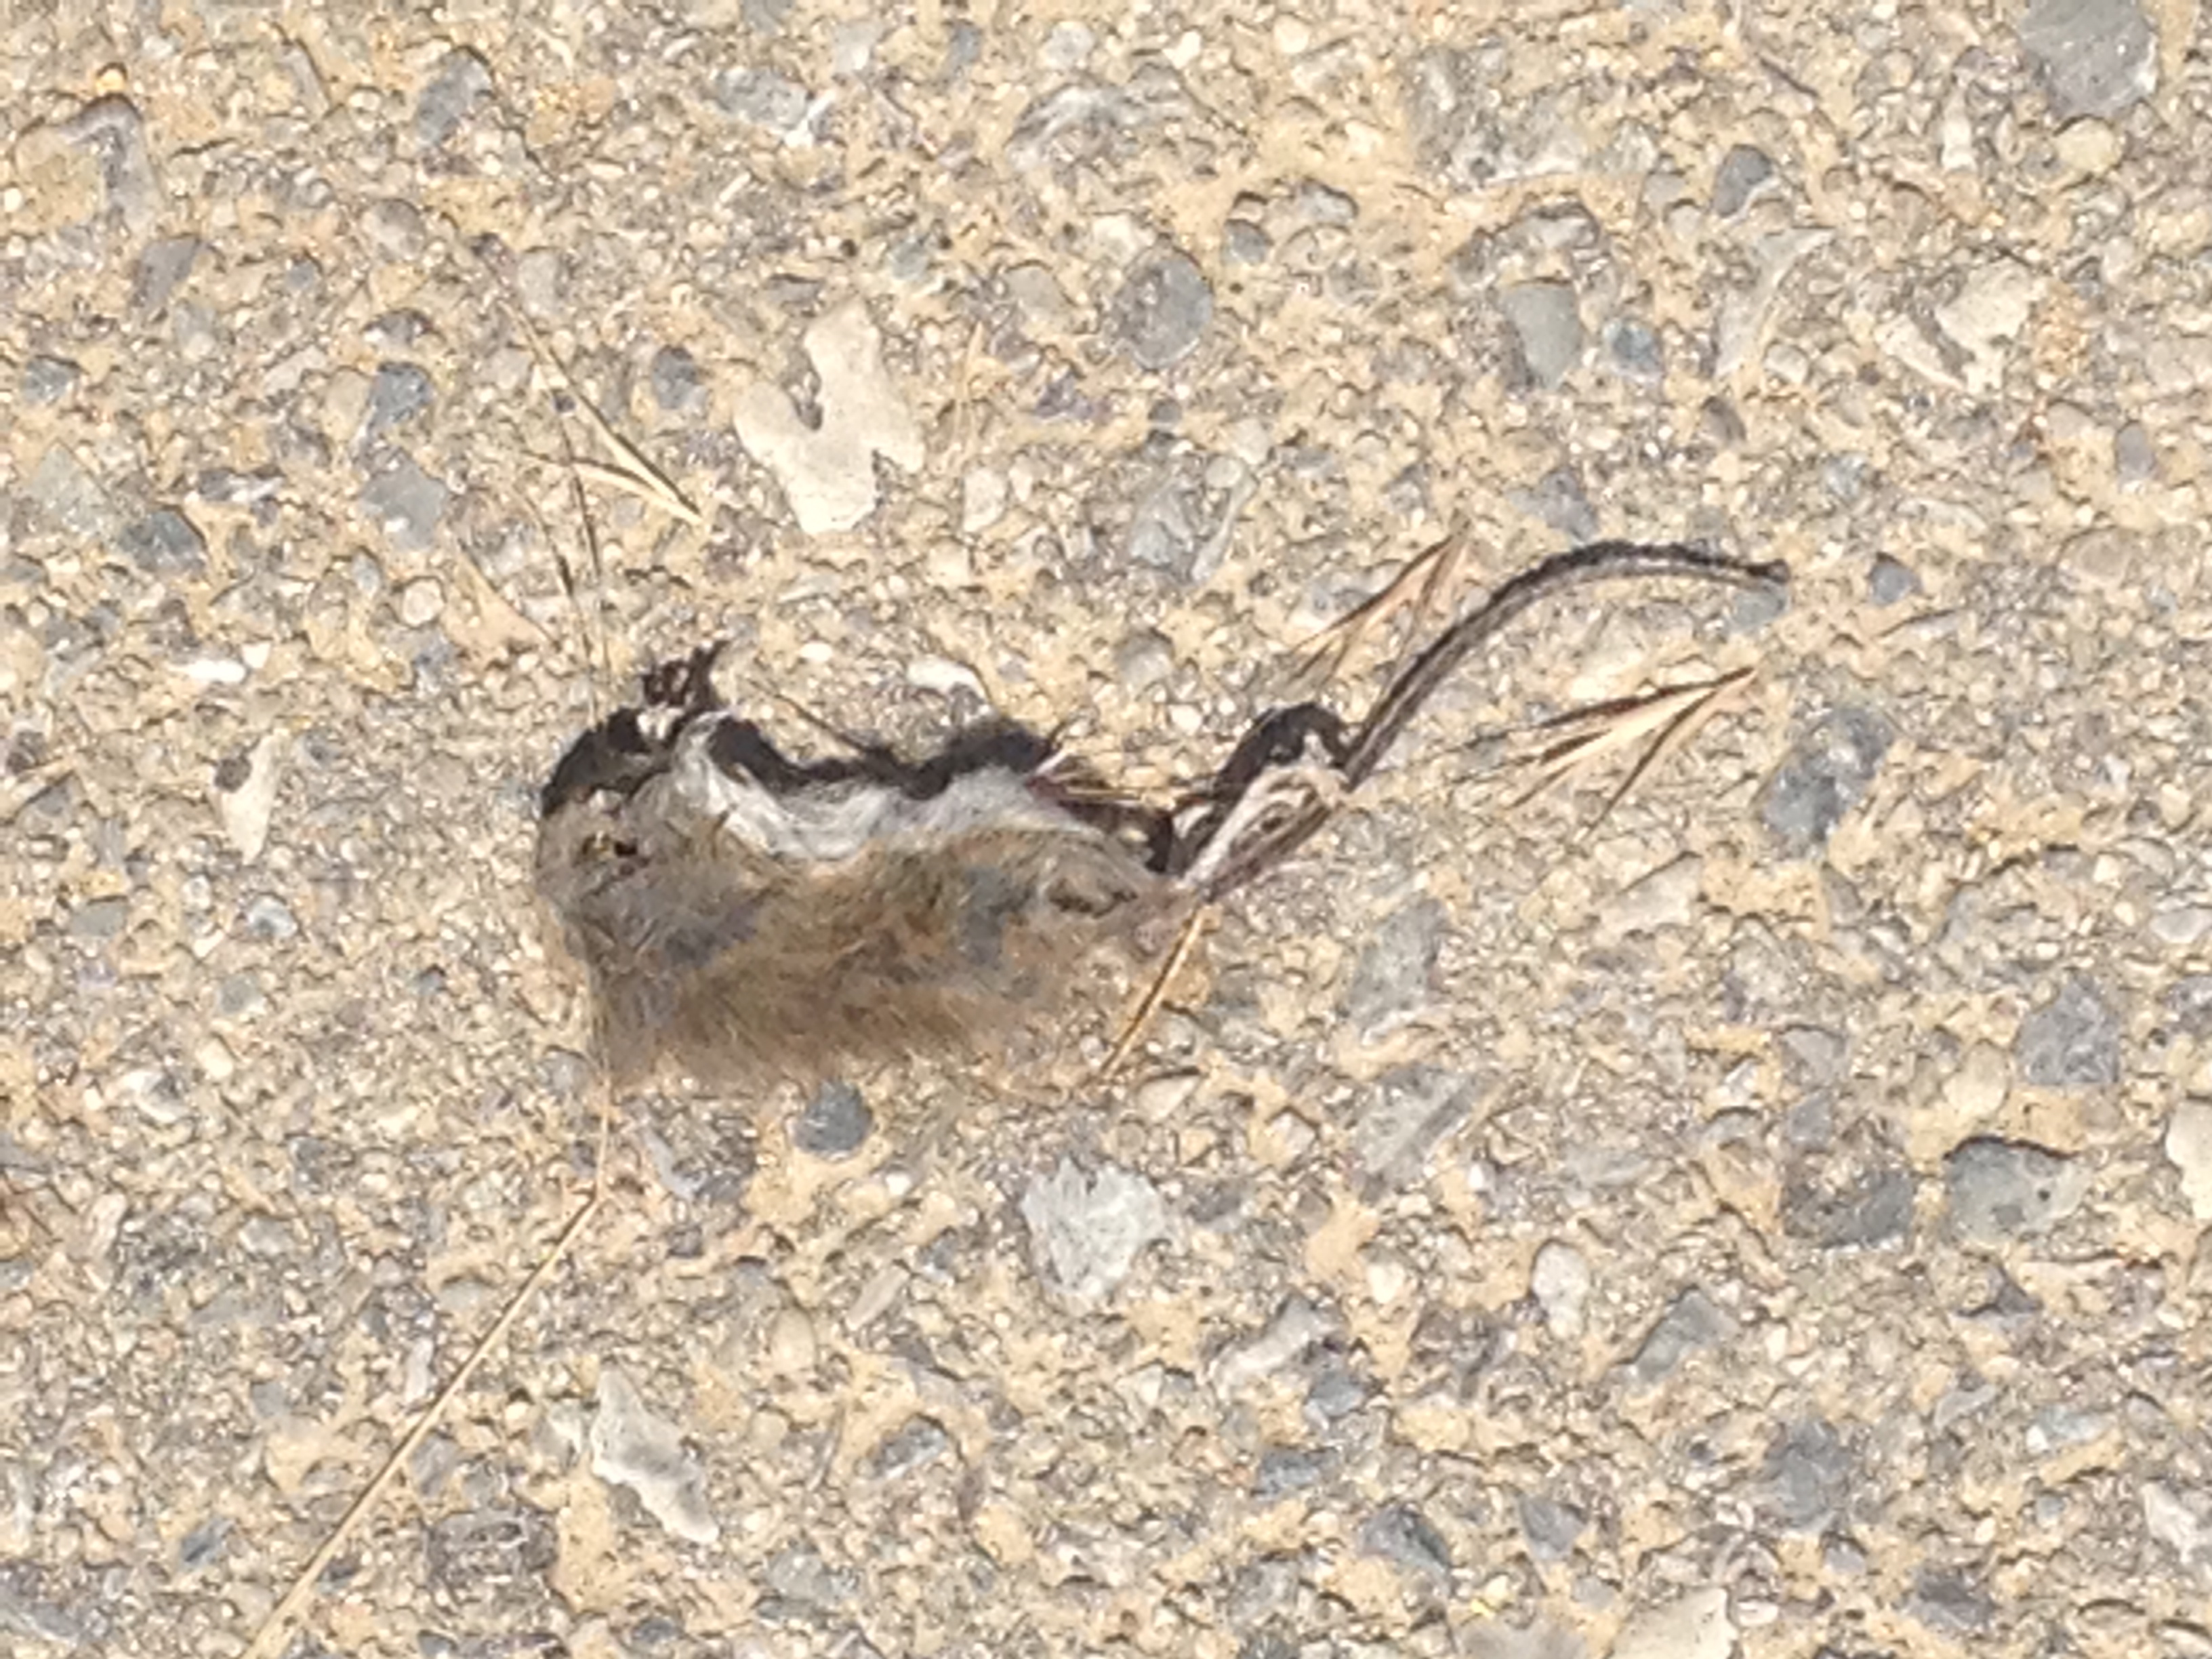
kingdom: Animalia
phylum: Chordata
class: Mammalia
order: Rodentia
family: Muridae
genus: Apodemus
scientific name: Apodemus
